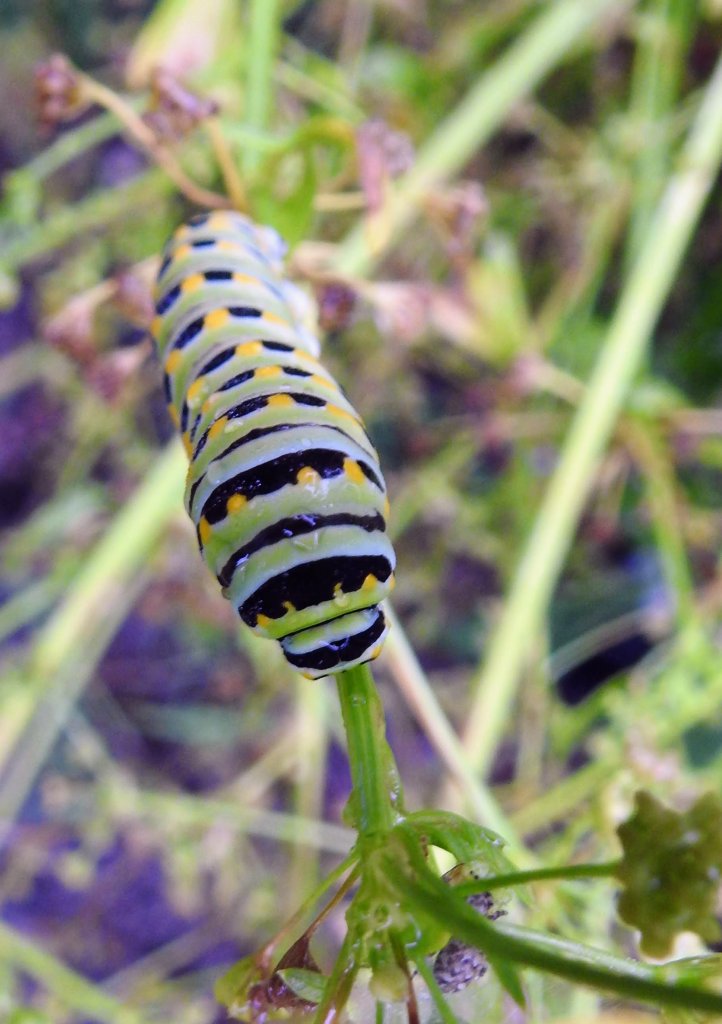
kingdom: Animalia
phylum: Arthropoda
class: Insecta
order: Lepidoptera
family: Papilionidae
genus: Papilio
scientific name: Papilio polyxenes
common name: Black Swallowtail
